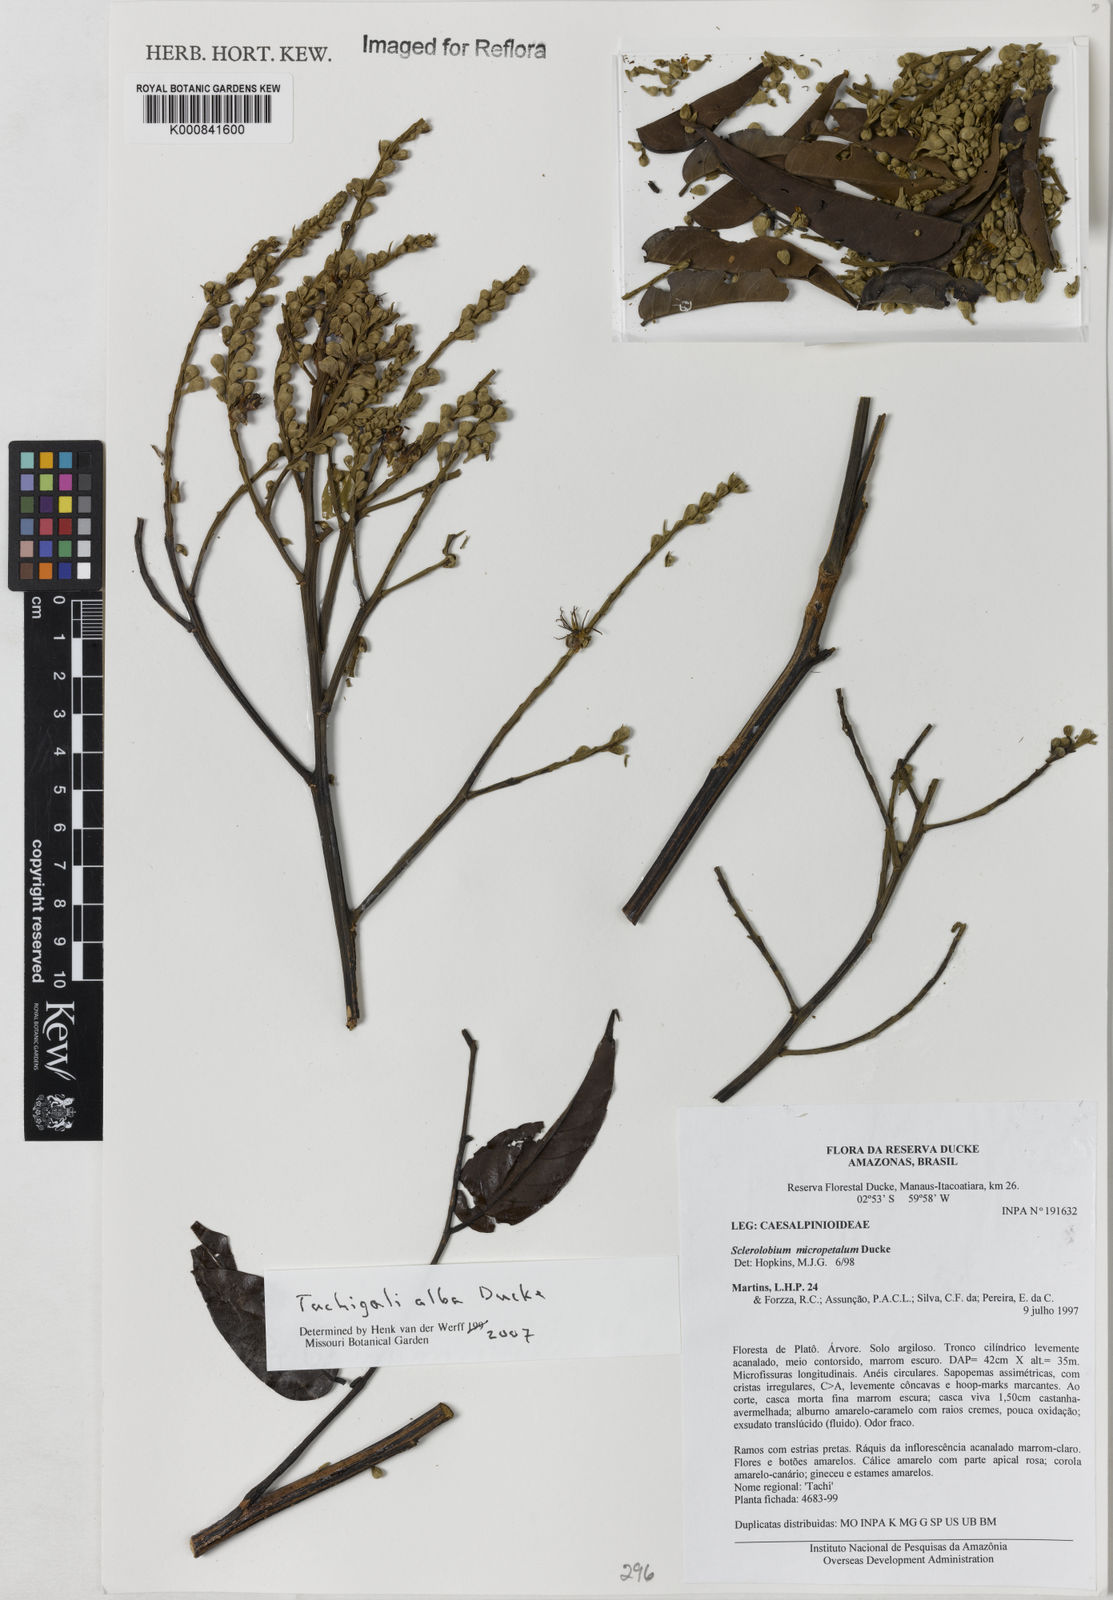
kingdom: Plantae
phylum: Tracheophyta
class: Magnoliopsida
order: Fabales
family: Fabaceae
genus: Tachigali
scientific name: Tachigali alba
